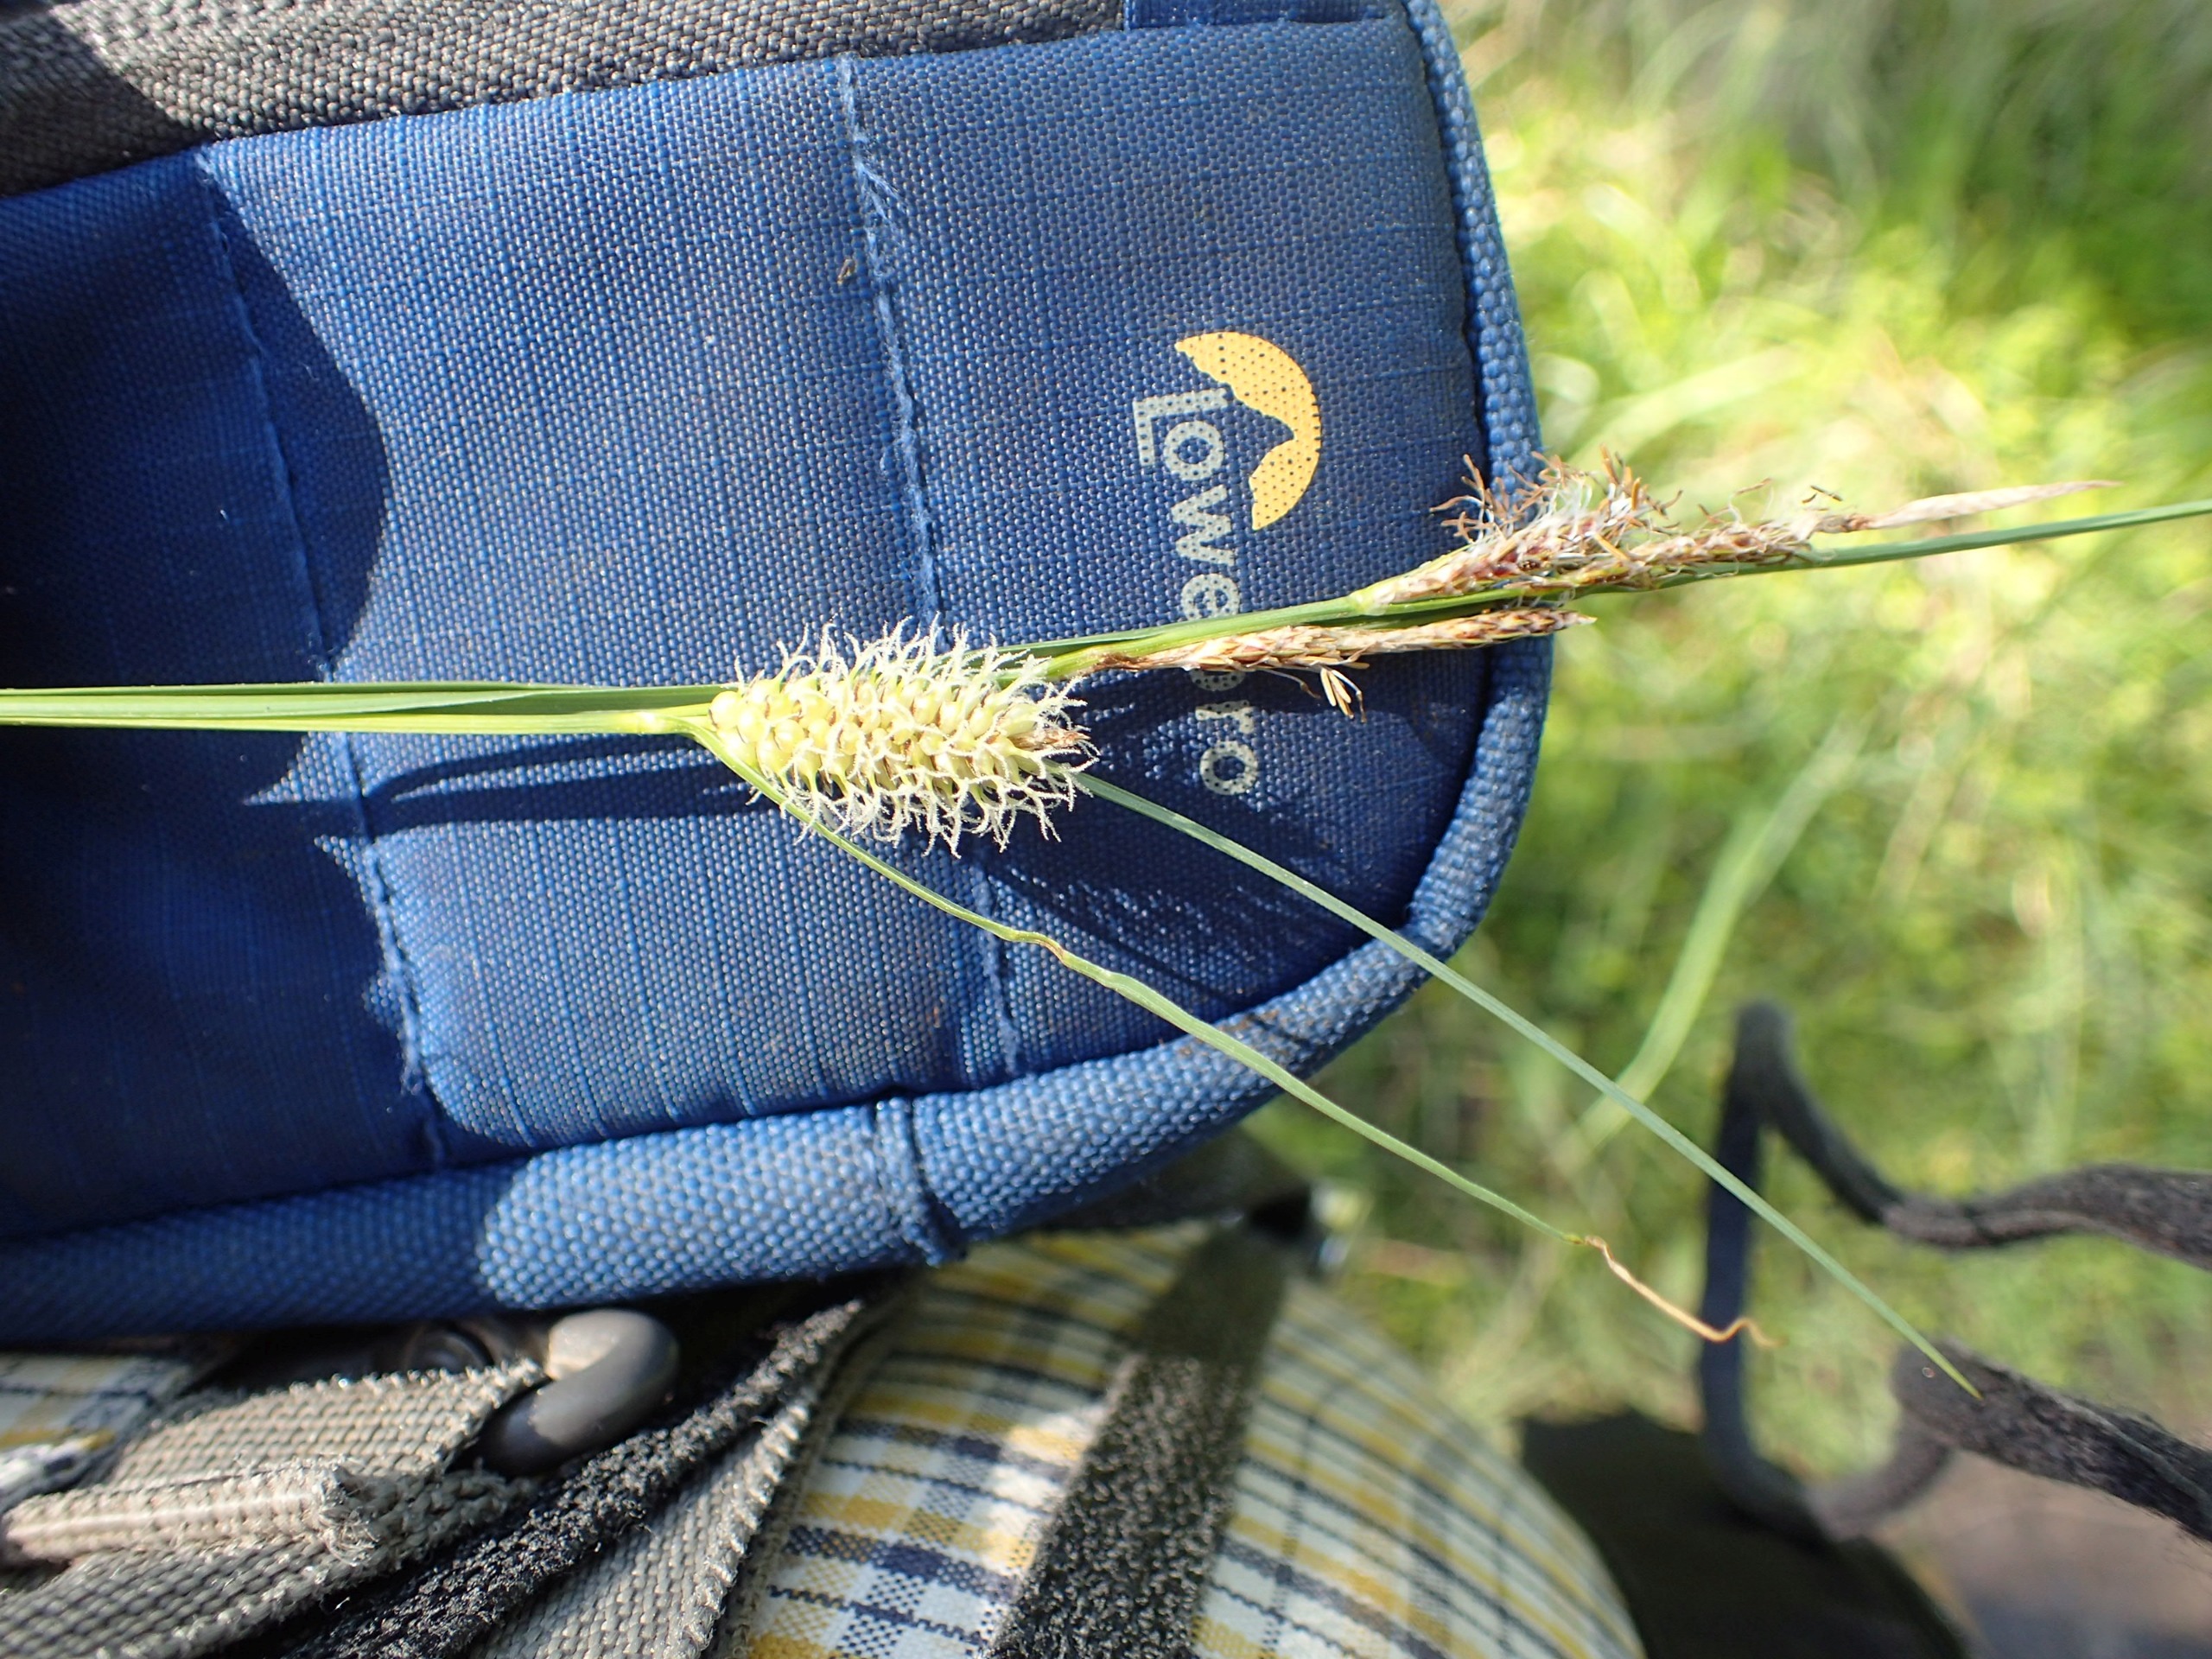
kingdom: Plantae
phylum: Tracheophyta
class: Liliopsida
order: Poales
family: Cyperaceae
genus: Carex
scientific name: Carex vesicaria
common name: Blære-star
